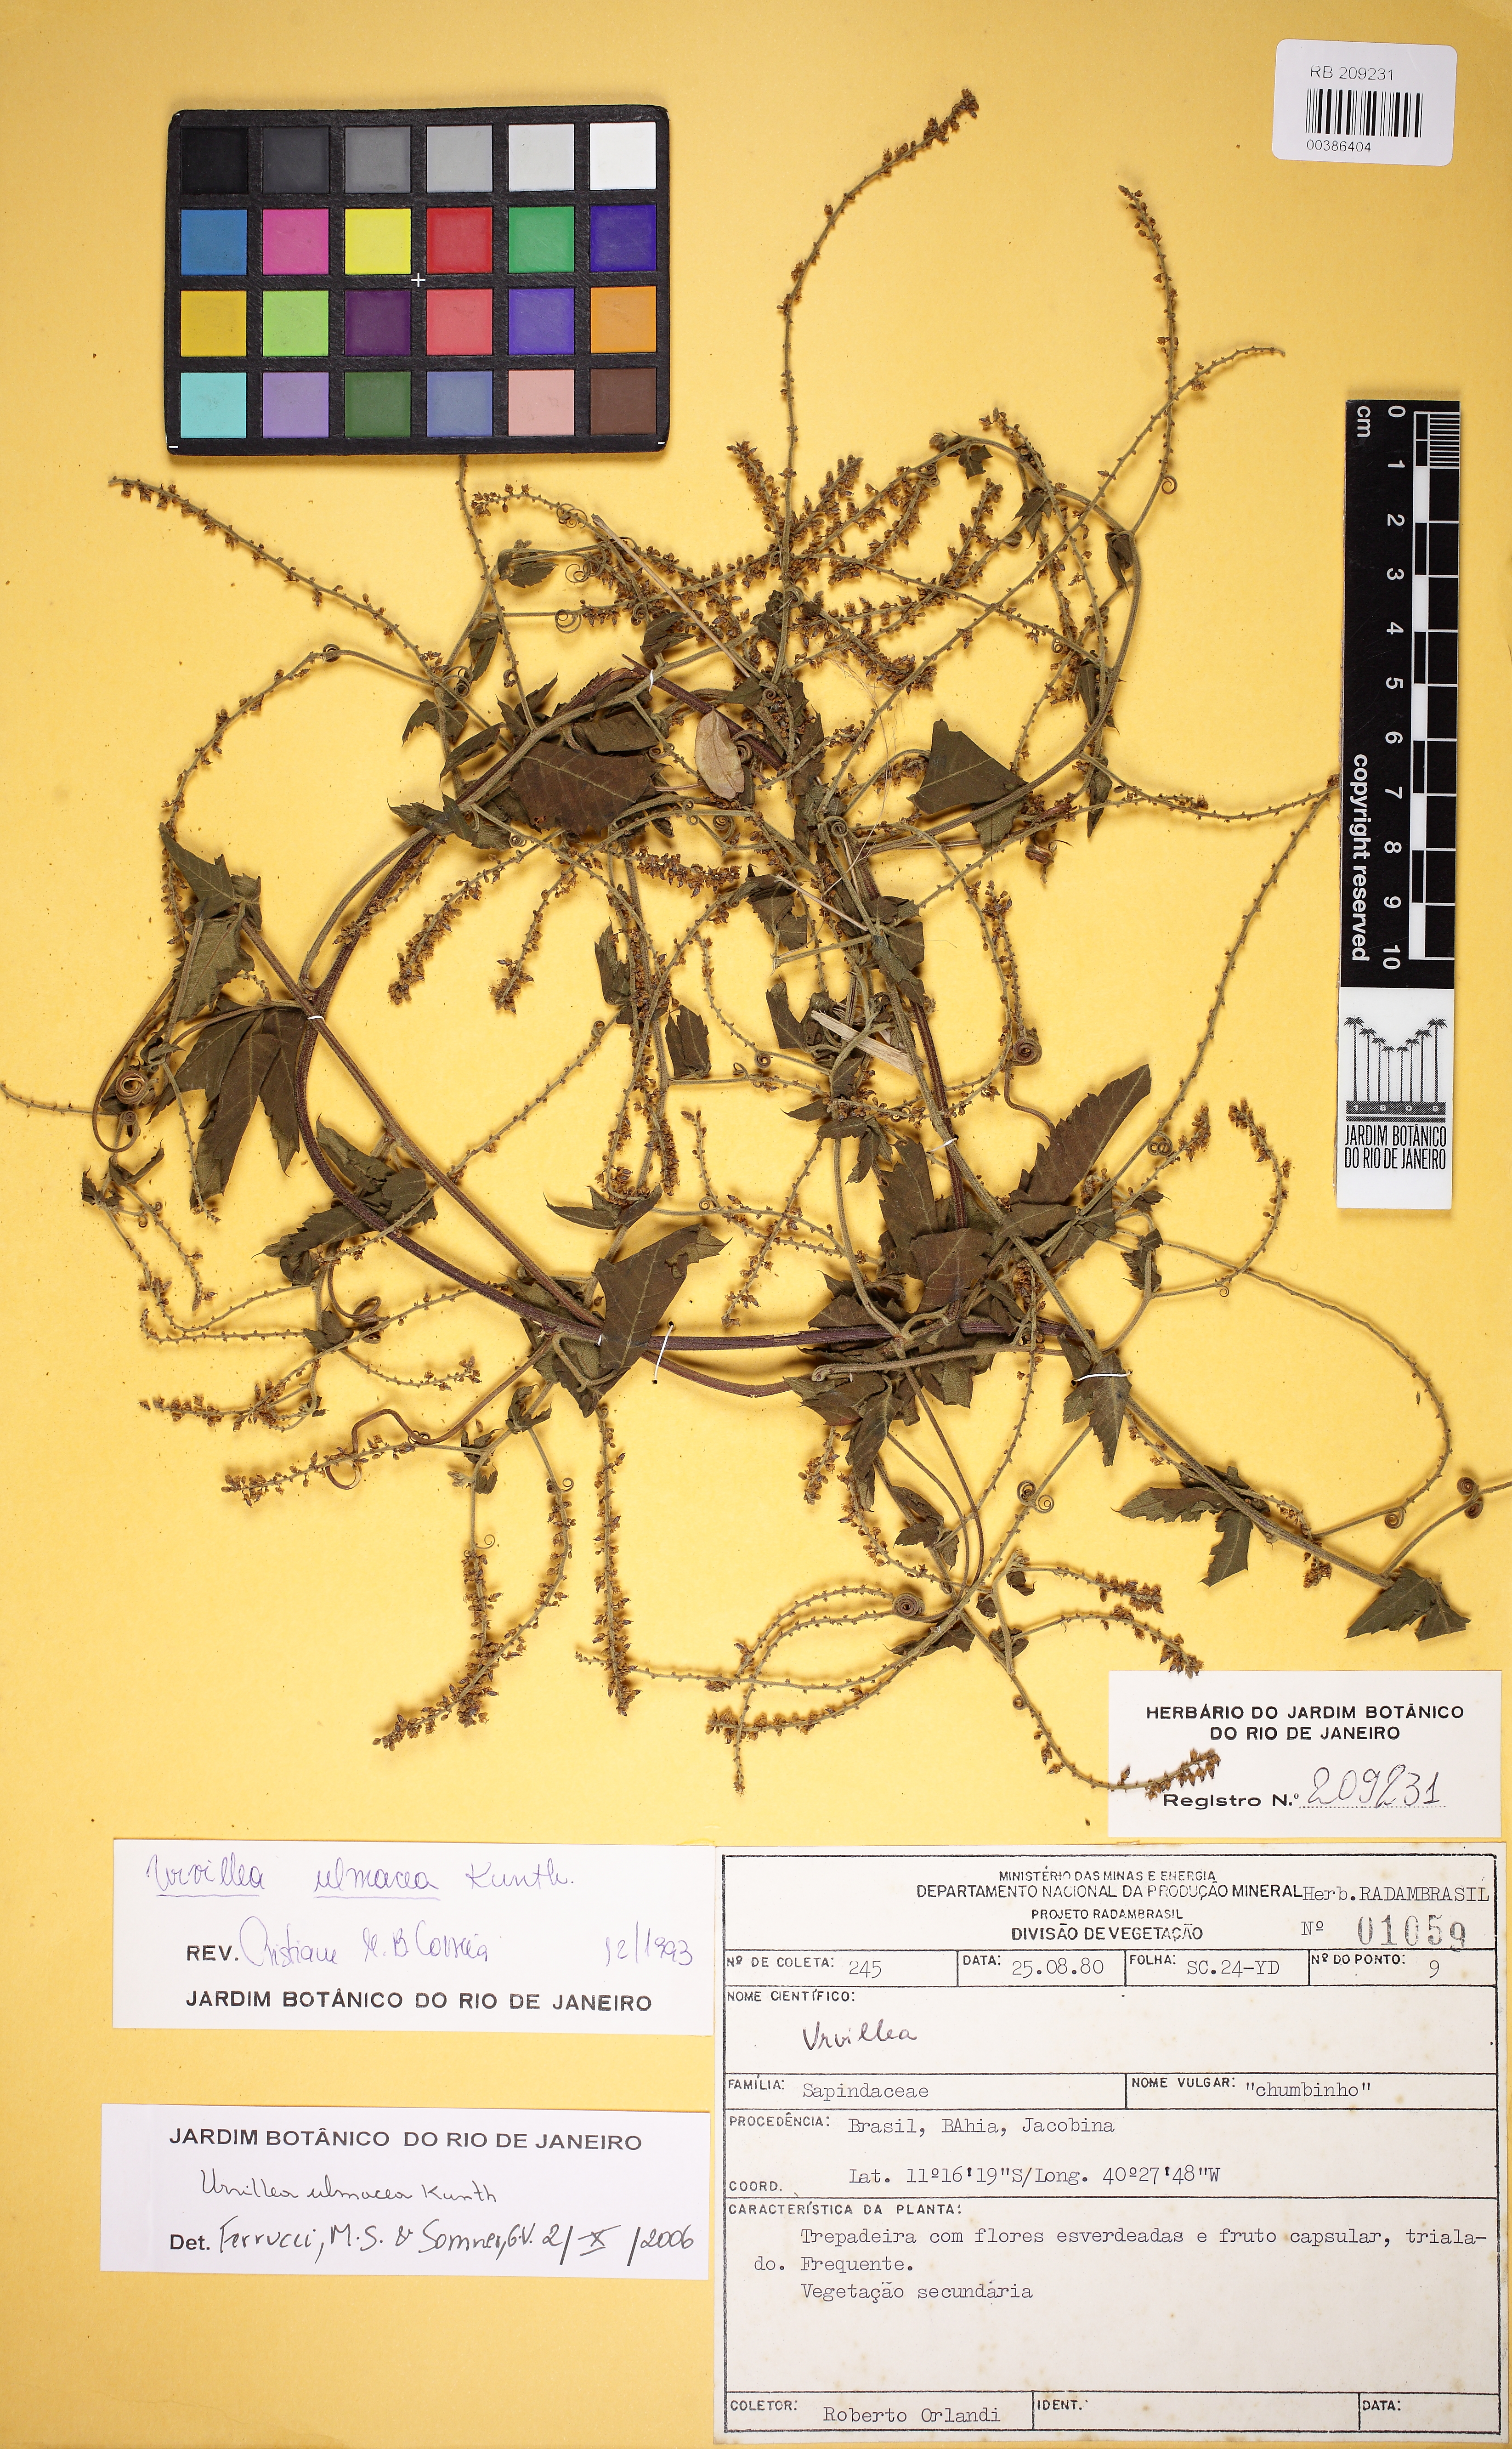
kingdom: Plantae
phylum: Tracheophyta
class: Magnoliopsida
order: Sapindales
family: Sapindaceae
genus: Urvillea
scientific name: Urvillea ulmacea
